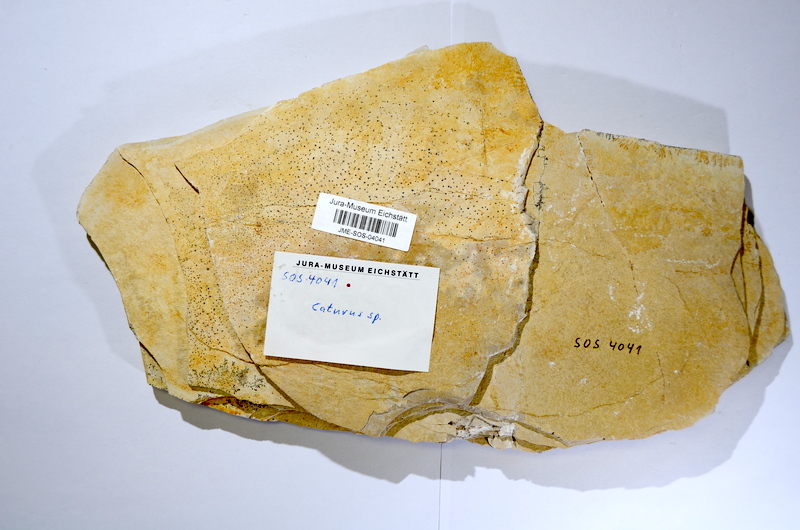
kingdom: Animalia
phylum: Chordata
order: Amiiformes
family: Caturidae
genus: Caturus
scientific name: Caturus
